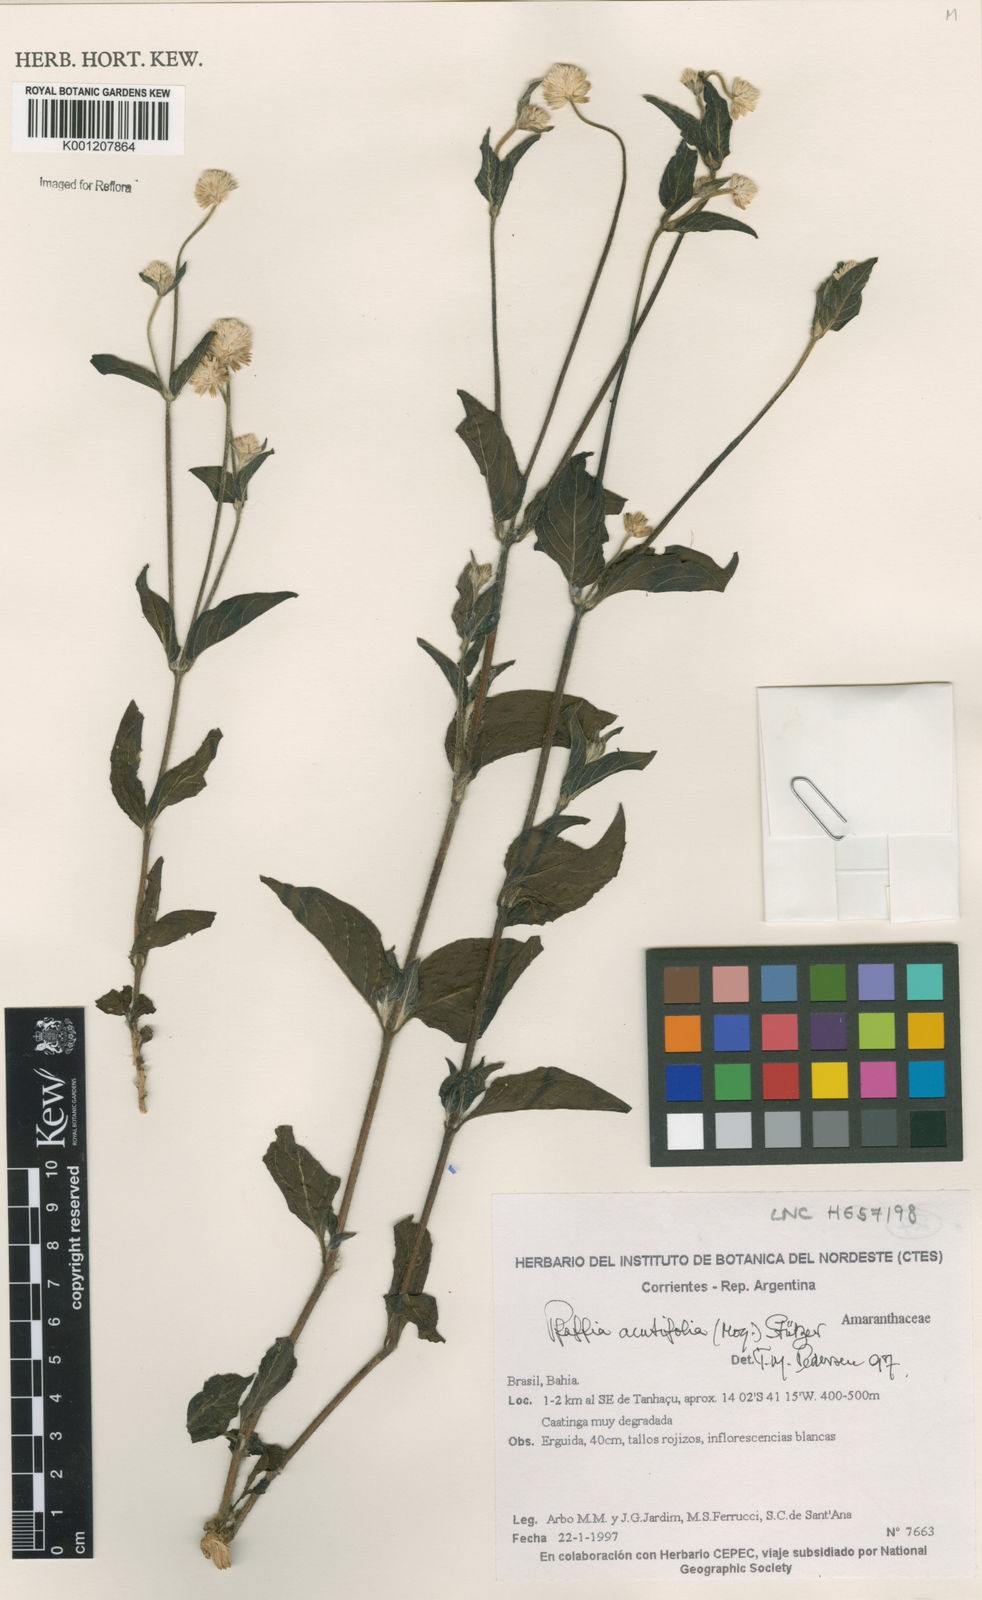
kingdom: Plantae
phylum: Tracheophyta
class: Magnoliopsida
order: Caryophyllales
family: Amaranthaceae
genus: Pfaffia
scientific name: Pfaffia
